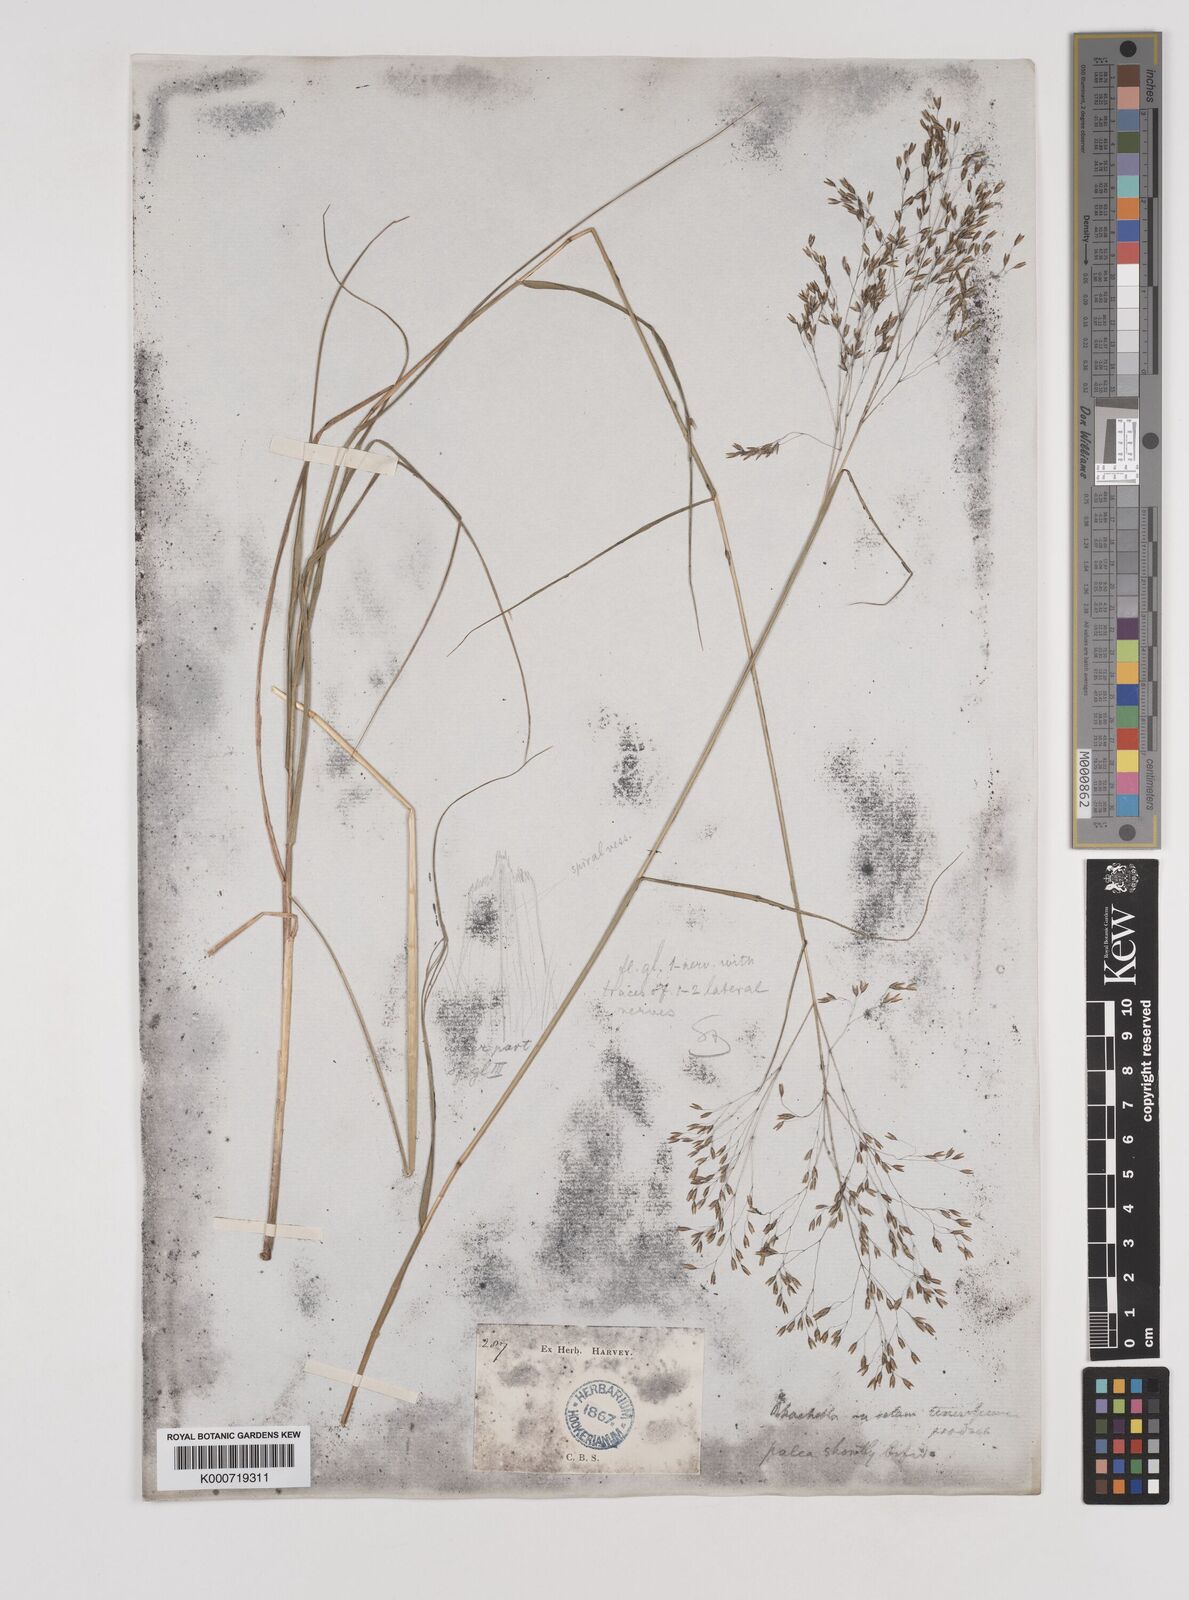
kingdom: Plantae
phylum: Tracheophyta
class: Liliopsida
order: Poales
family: Poaceae
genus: Pentameris
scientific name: Pentameris ampla
